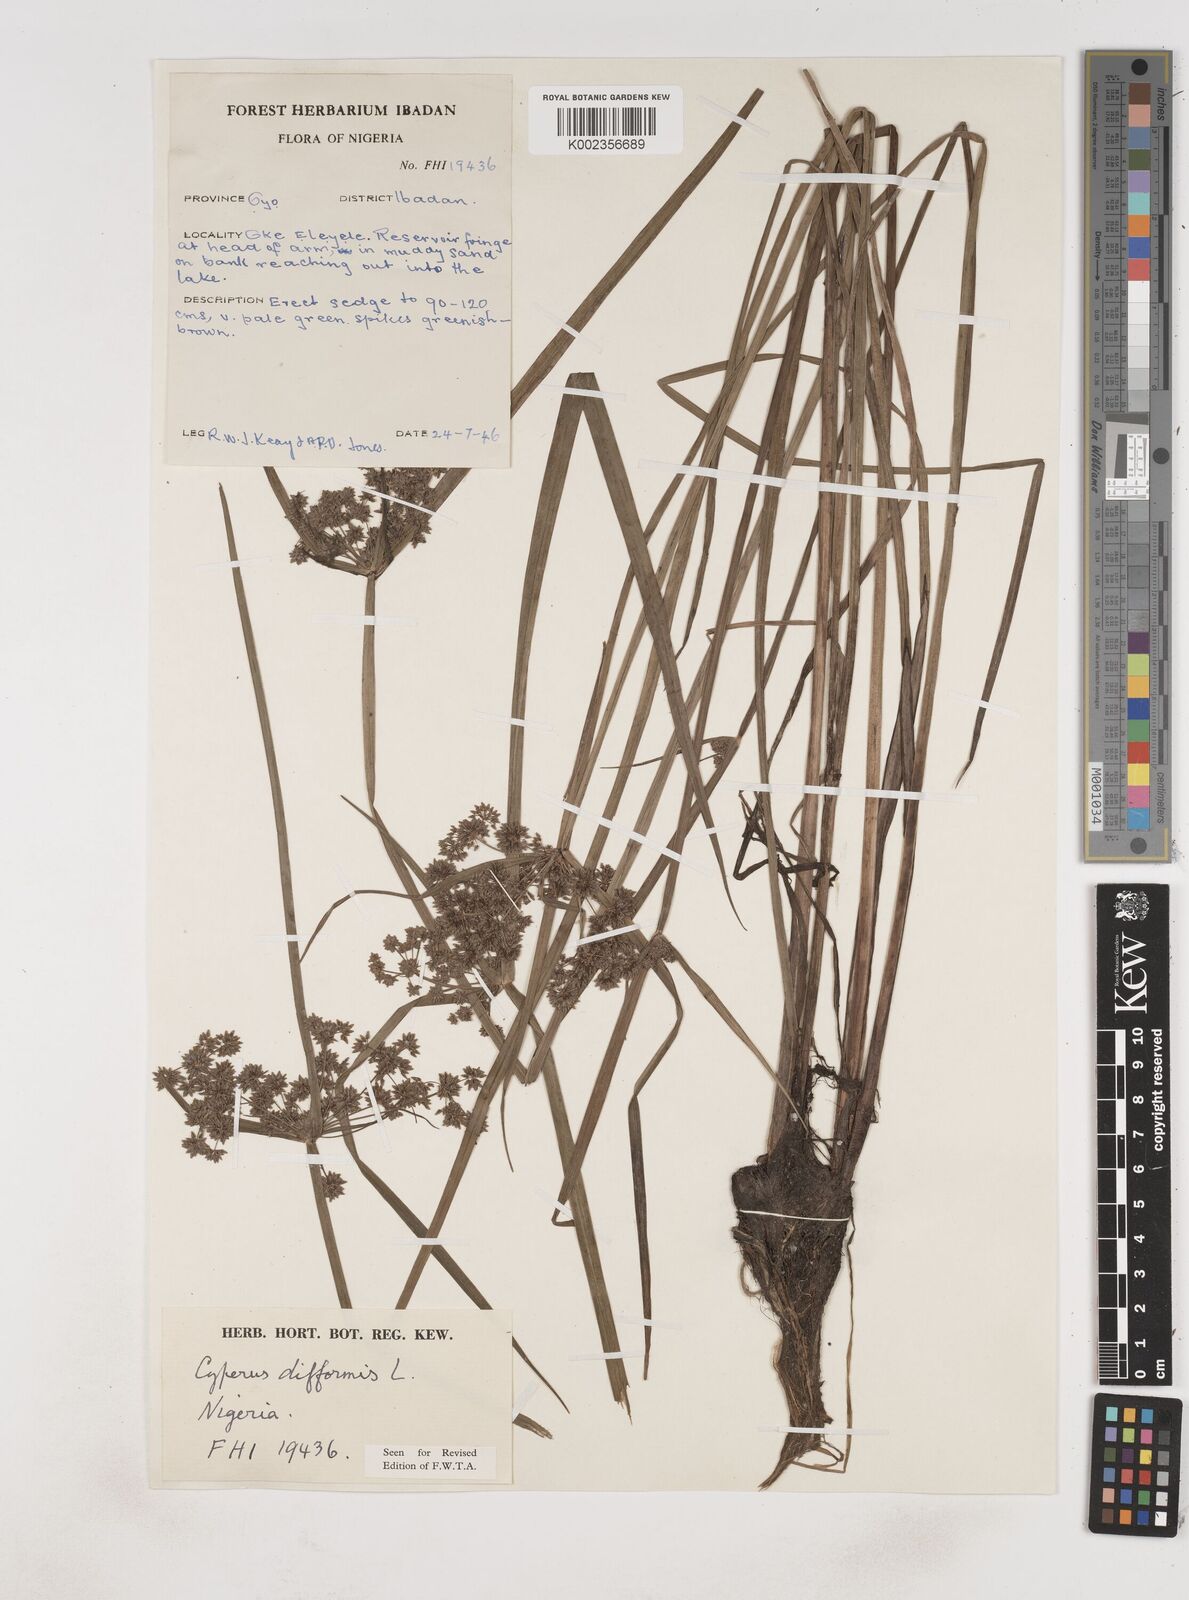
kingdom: Plantae
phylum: Tracheophyta
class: Liliopsida
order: Poales
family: Cyperaceae
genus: Cyperus
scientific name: Cyperus difformis
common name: Variable flatsedge
